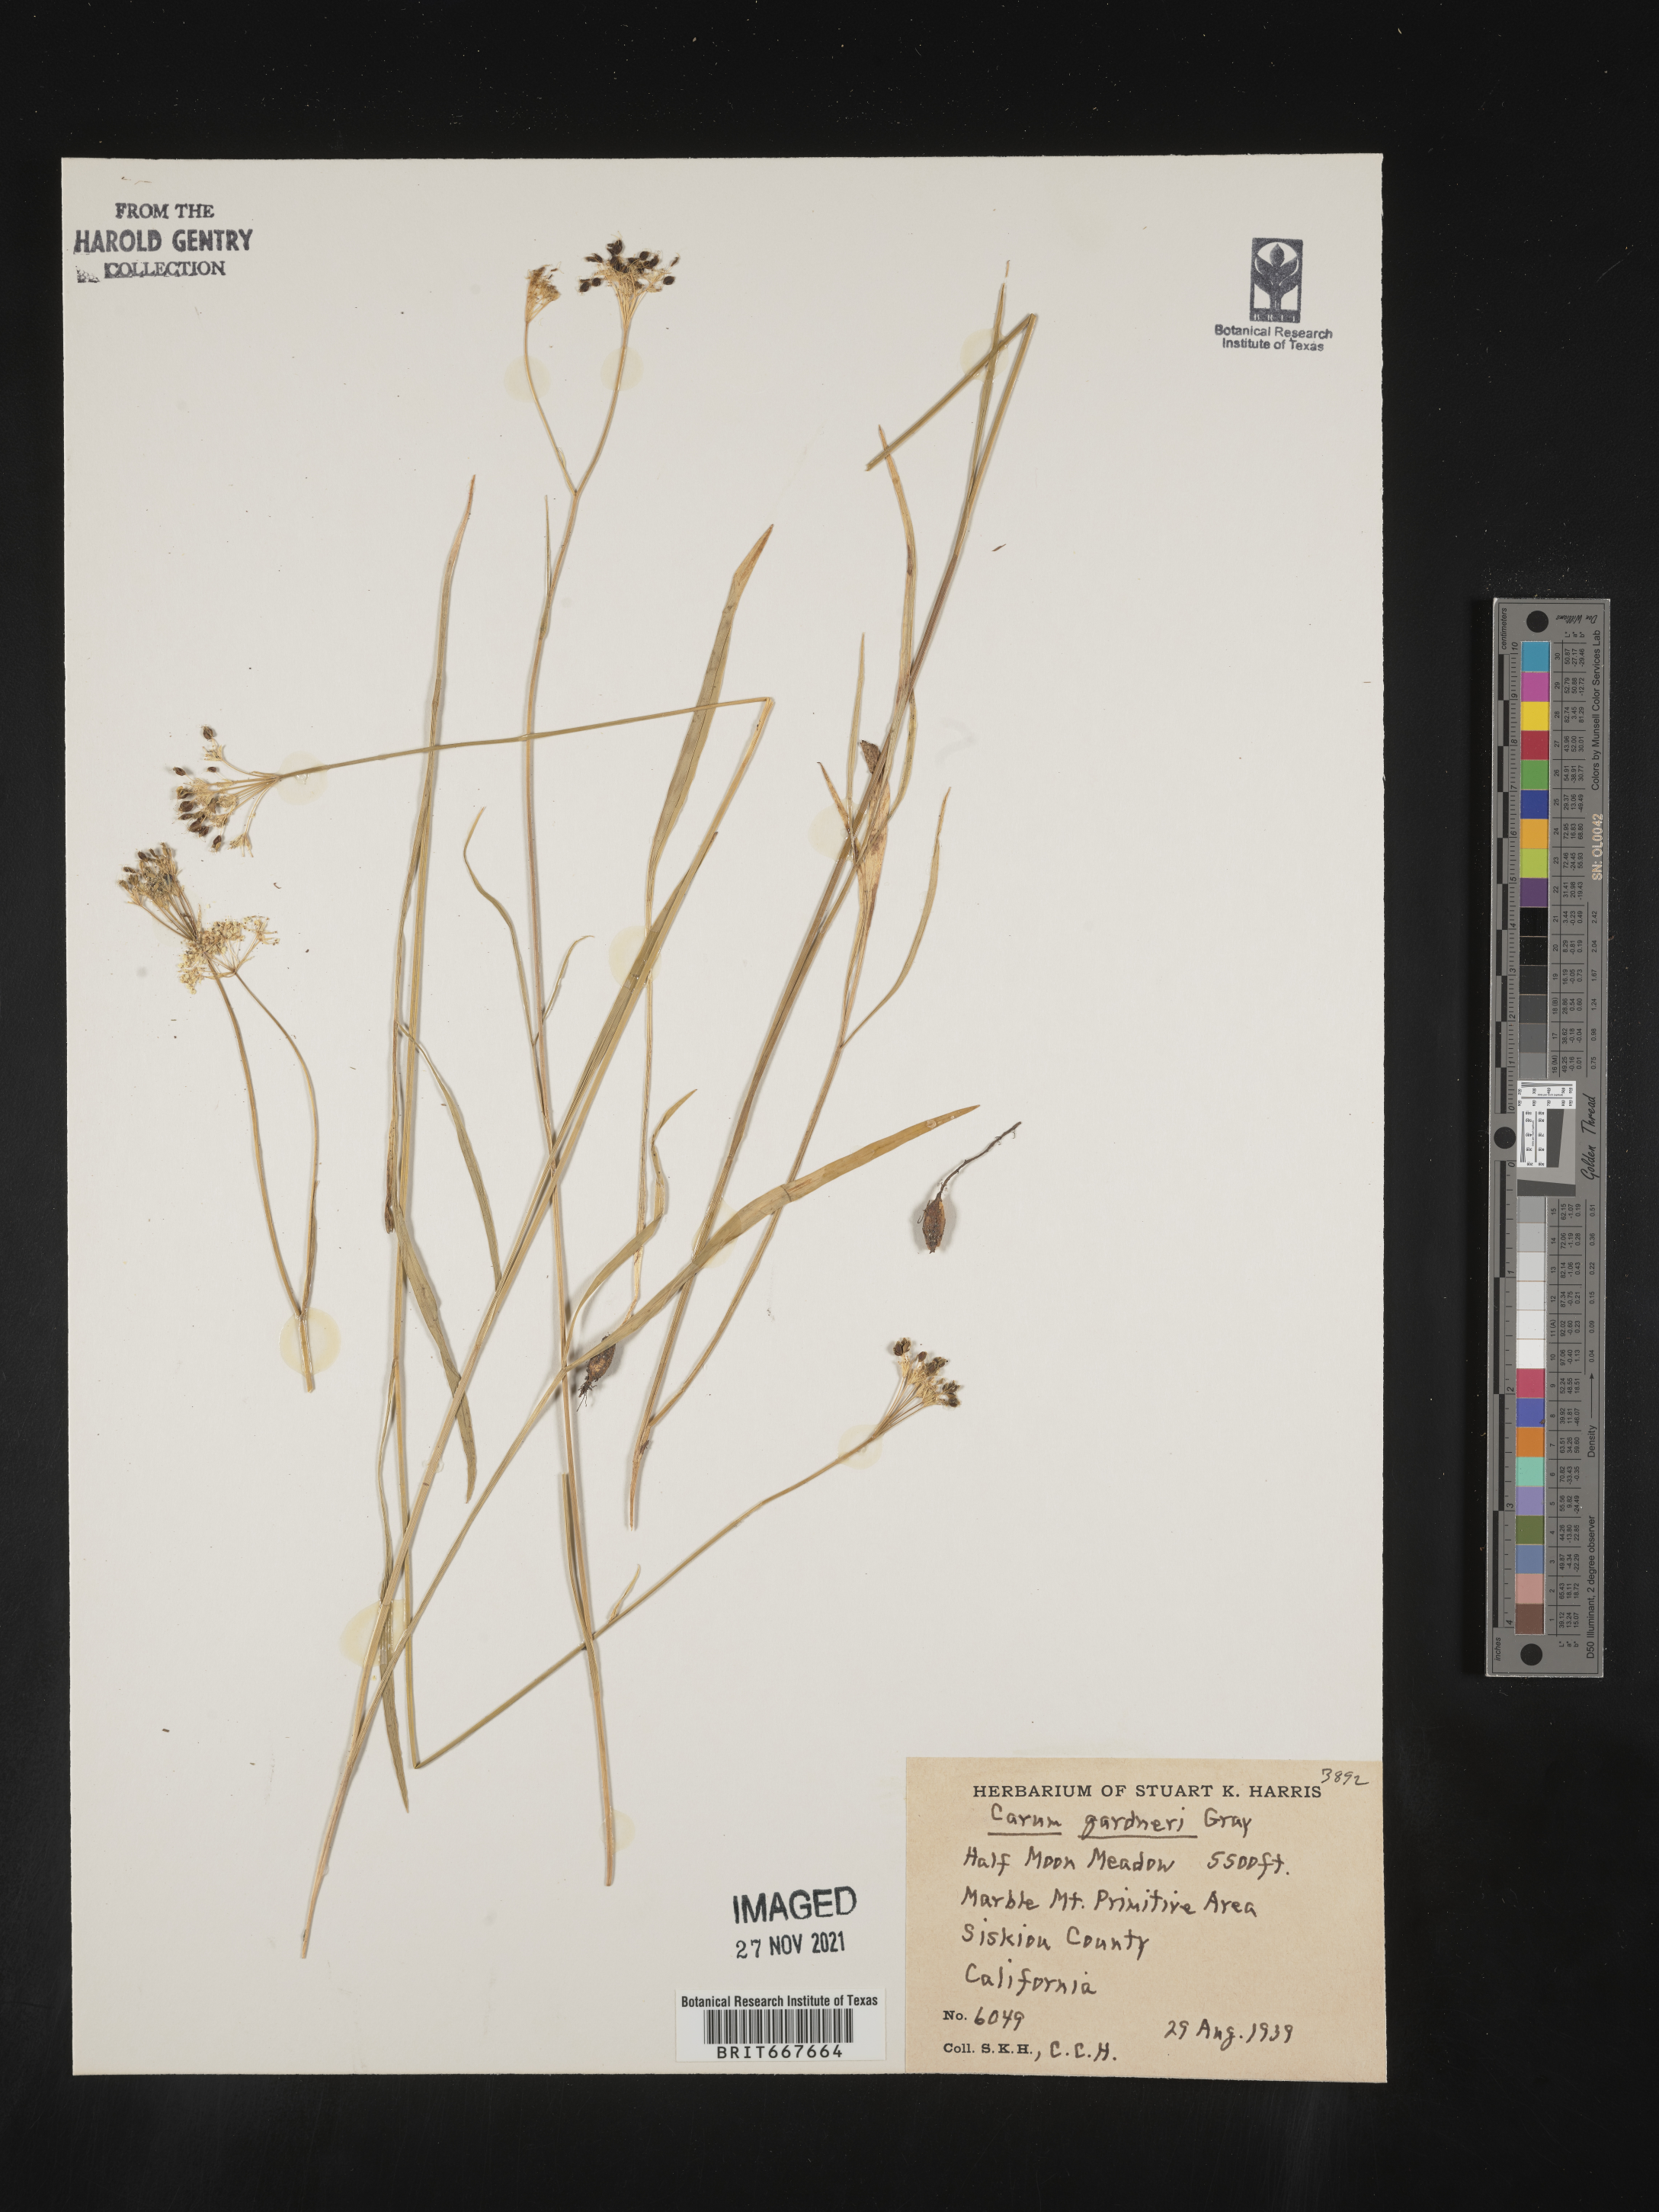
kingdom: Plantae
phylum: Tracheophyta
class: Magnoliopsida
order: Apiales
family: Apiaceae
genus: Carum
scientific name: Carum
